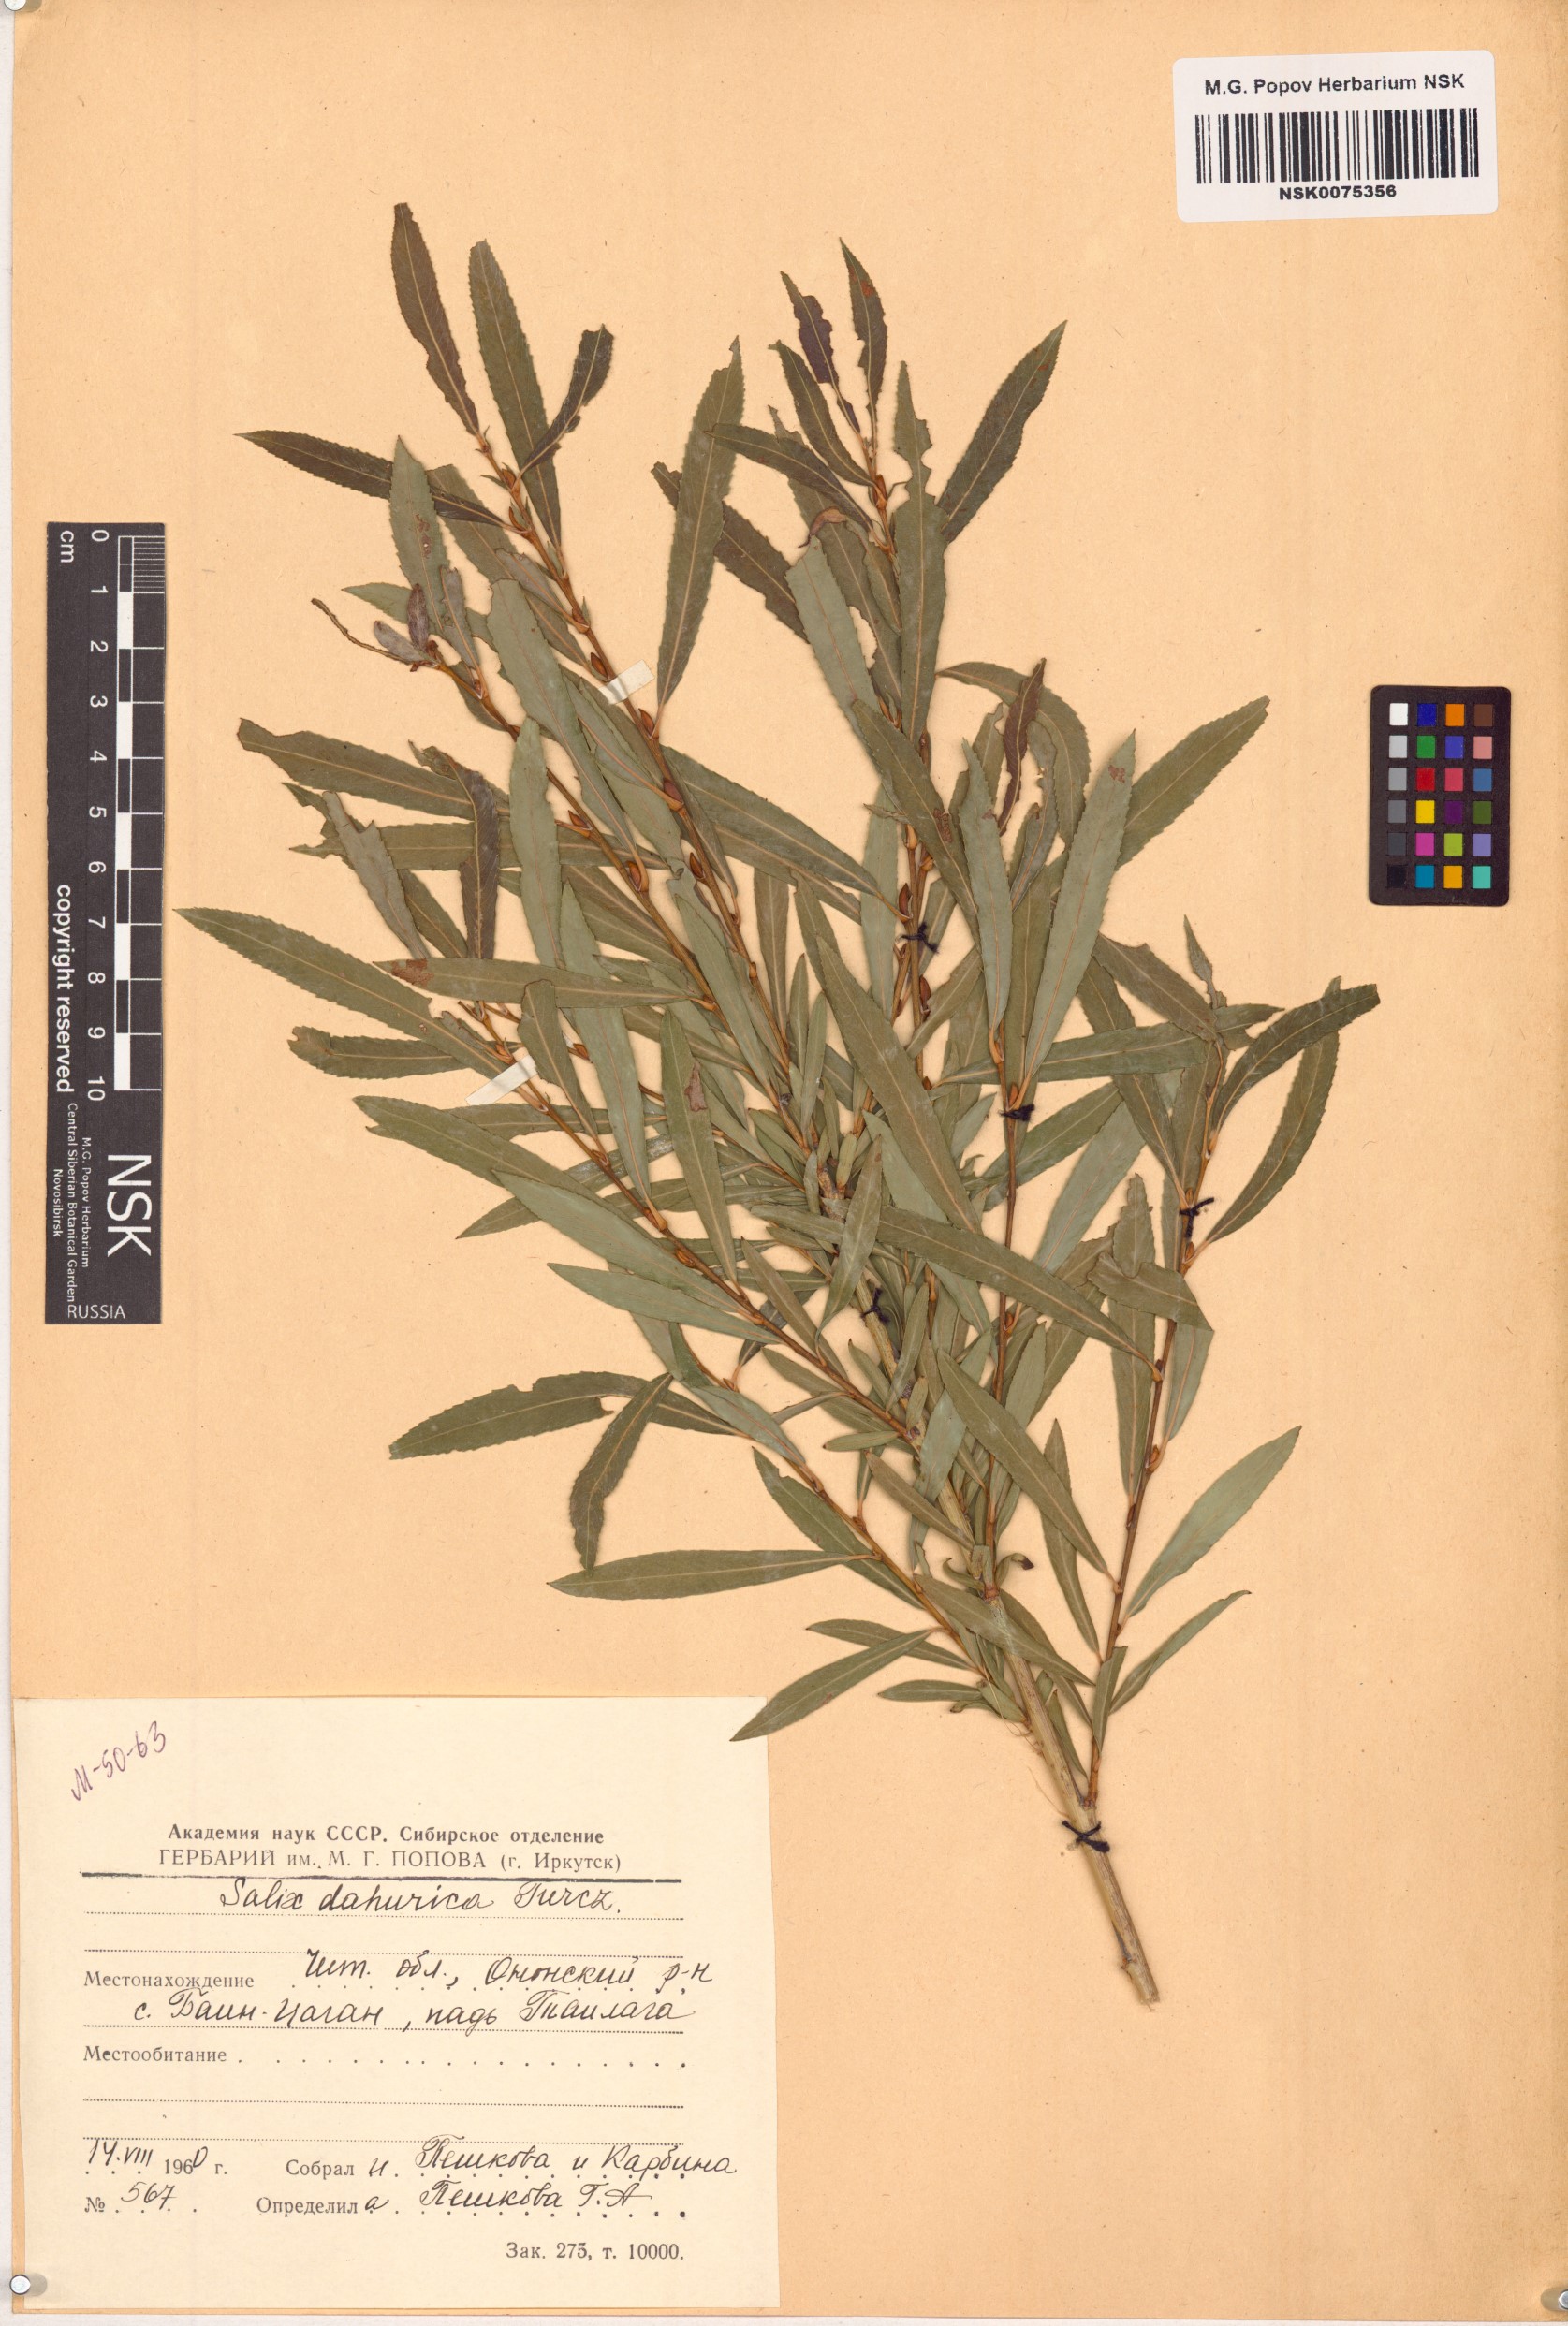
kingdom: Plantae
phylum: Tracheophyta
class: Magnoliopsida
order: Malpighiales
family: Salicaceae
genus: Salix
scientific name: Salix
